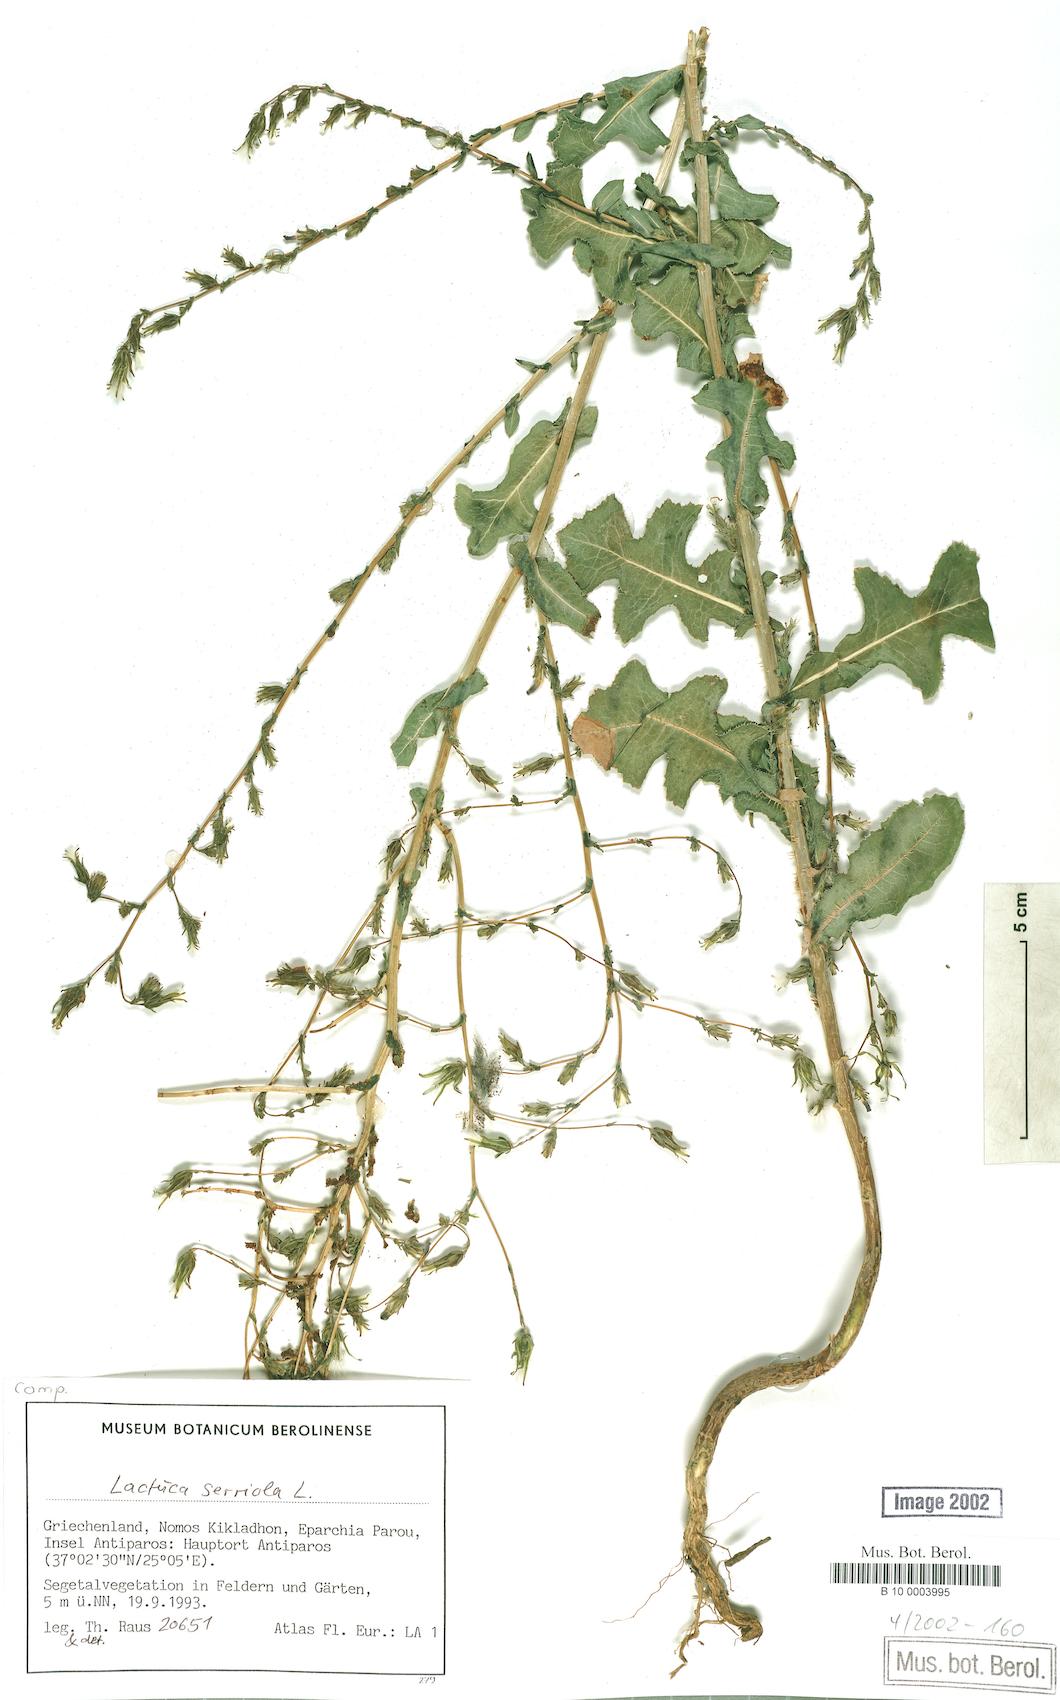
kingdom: Plantae
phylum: Tracheophyta
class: Magnoliopsida
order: Asterales
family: Asteraceae
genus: Lactuca
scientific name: Lactuca serriola
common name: Prickly lettuce
